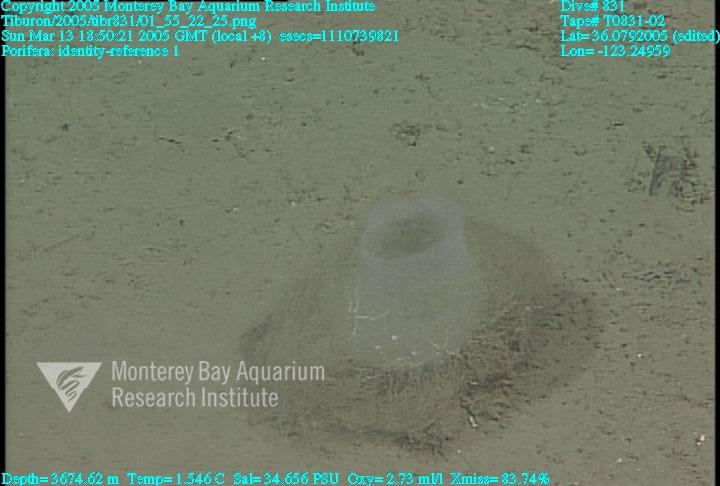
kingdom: Animalia
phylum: Porifera
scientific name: Porifera
